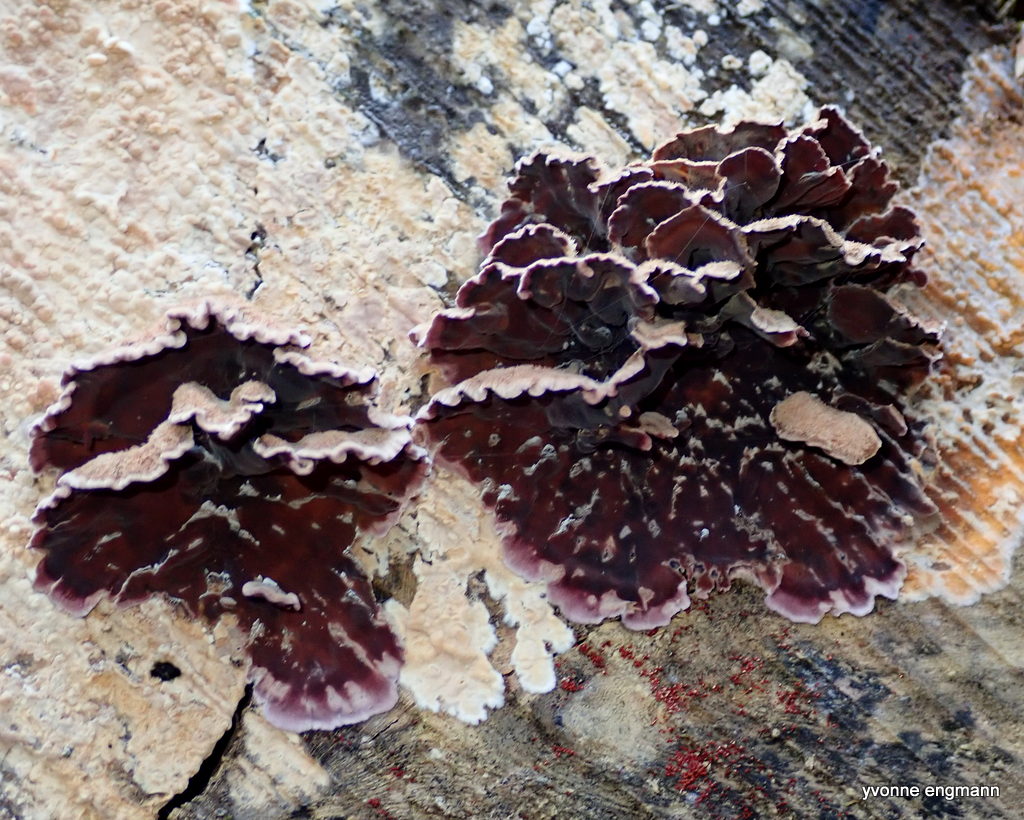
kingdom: Fungi
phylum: Basidiomycota
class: Agaricomycetes
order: Agaricales
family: Cyphellaceae
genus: Chondrostereum
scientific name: Chondrostereum purpureum
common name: purpurlædersvamp
